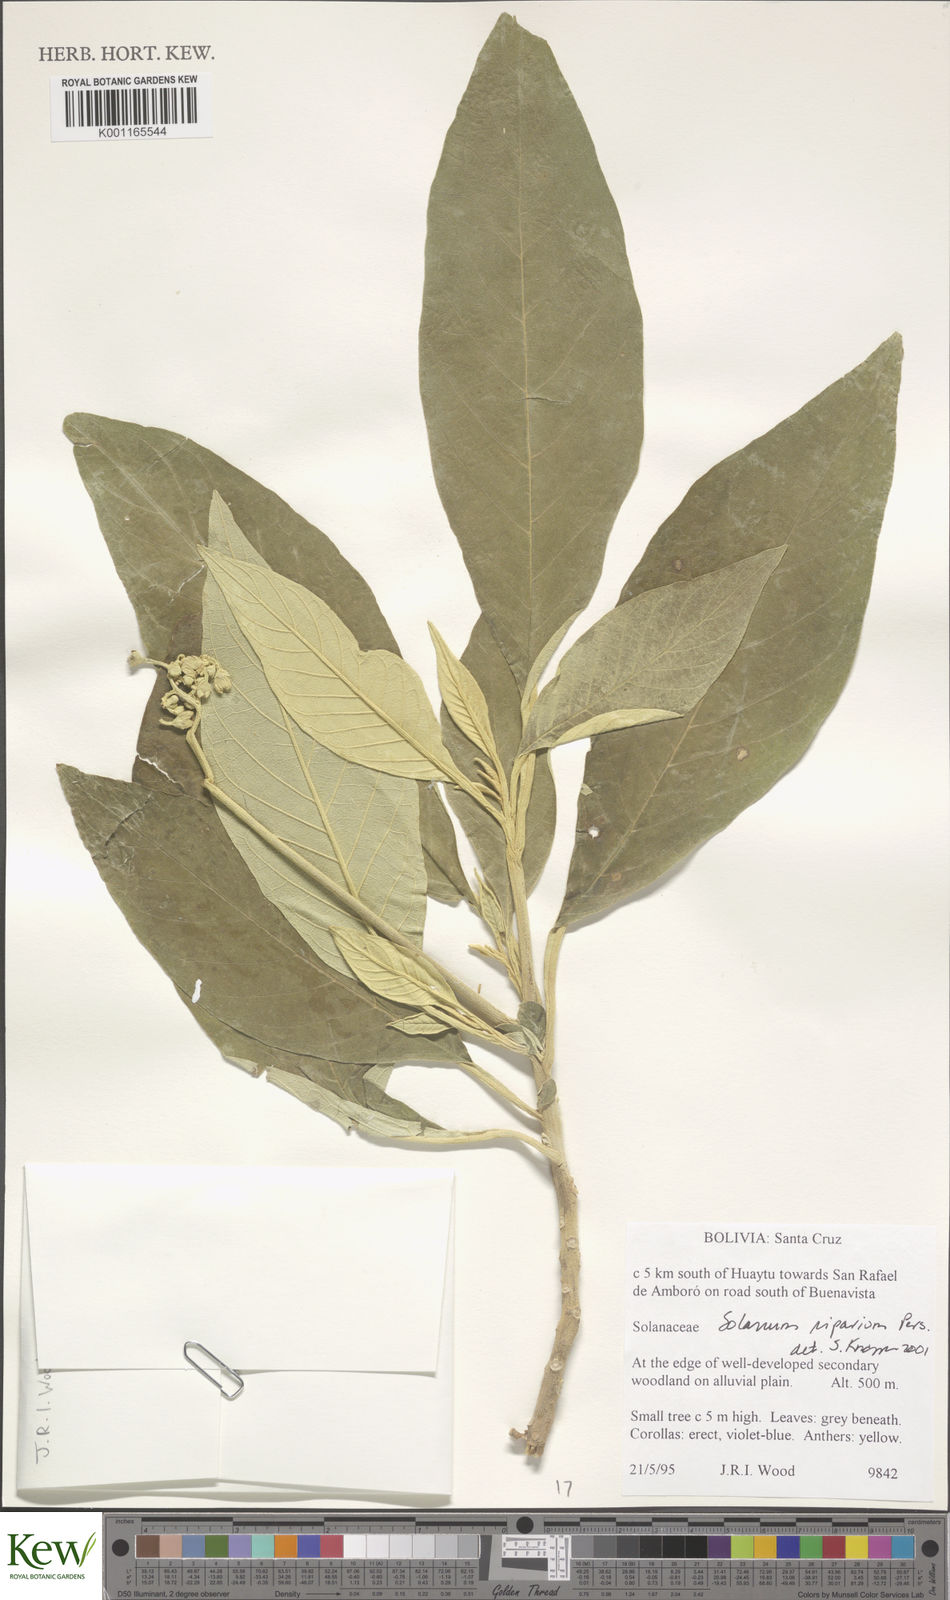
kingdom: Plantae
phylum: Tracheophyta
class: Magnoliopsida
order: Solanales
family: Solanaceae
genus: Solanum
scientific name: Solanum riparium
